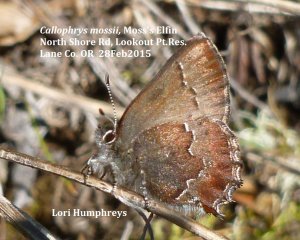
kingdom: Animalia
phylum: Arthropoda
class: Insecta
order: Lepidoptera
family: Lycaenidae
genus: Callophrys
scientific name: Callophrys mossii
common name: Moss' Elfin
